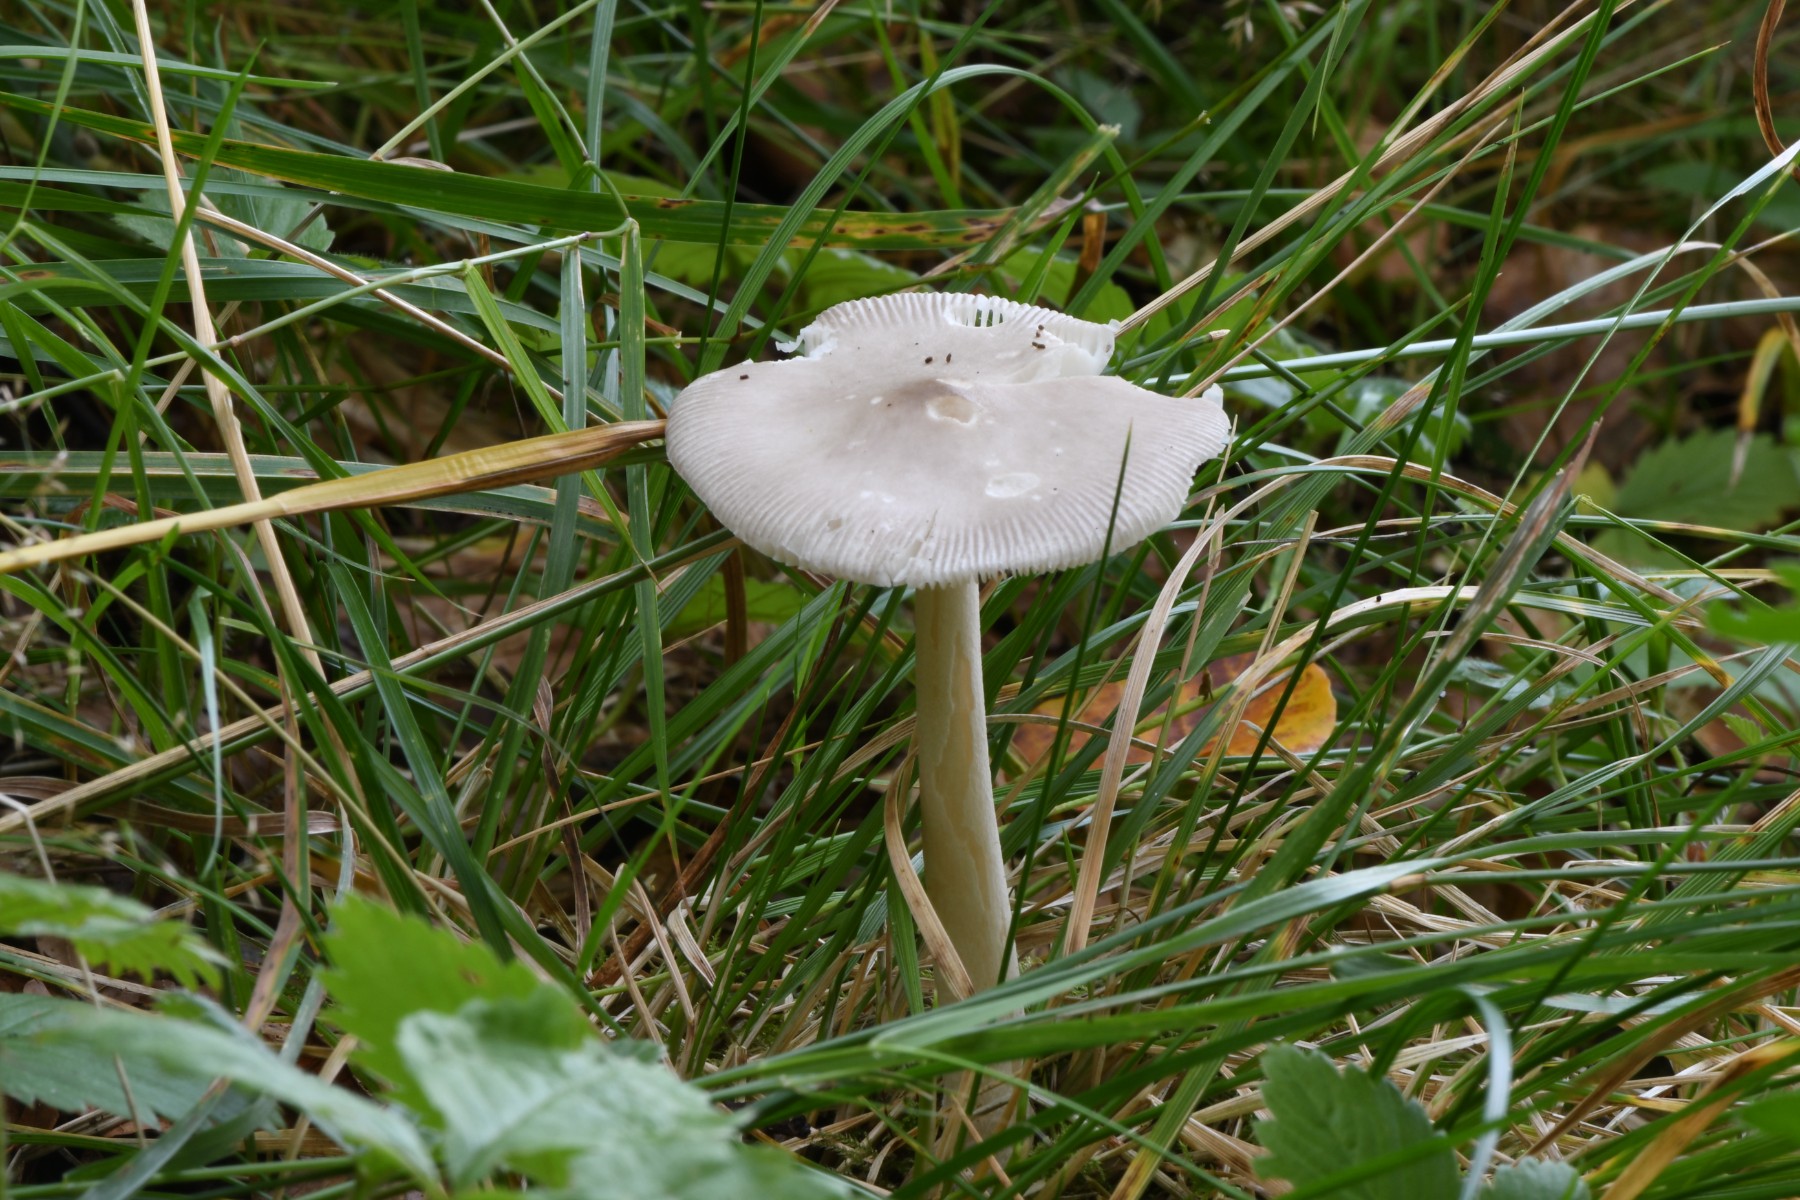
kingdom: Fungi
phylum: Basidiomycota
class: Agaricomycetes
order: Agaricales
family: Amanitaceae
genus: Amanita
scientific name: Amanita vaginata
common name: grå kam-fluesvamp
